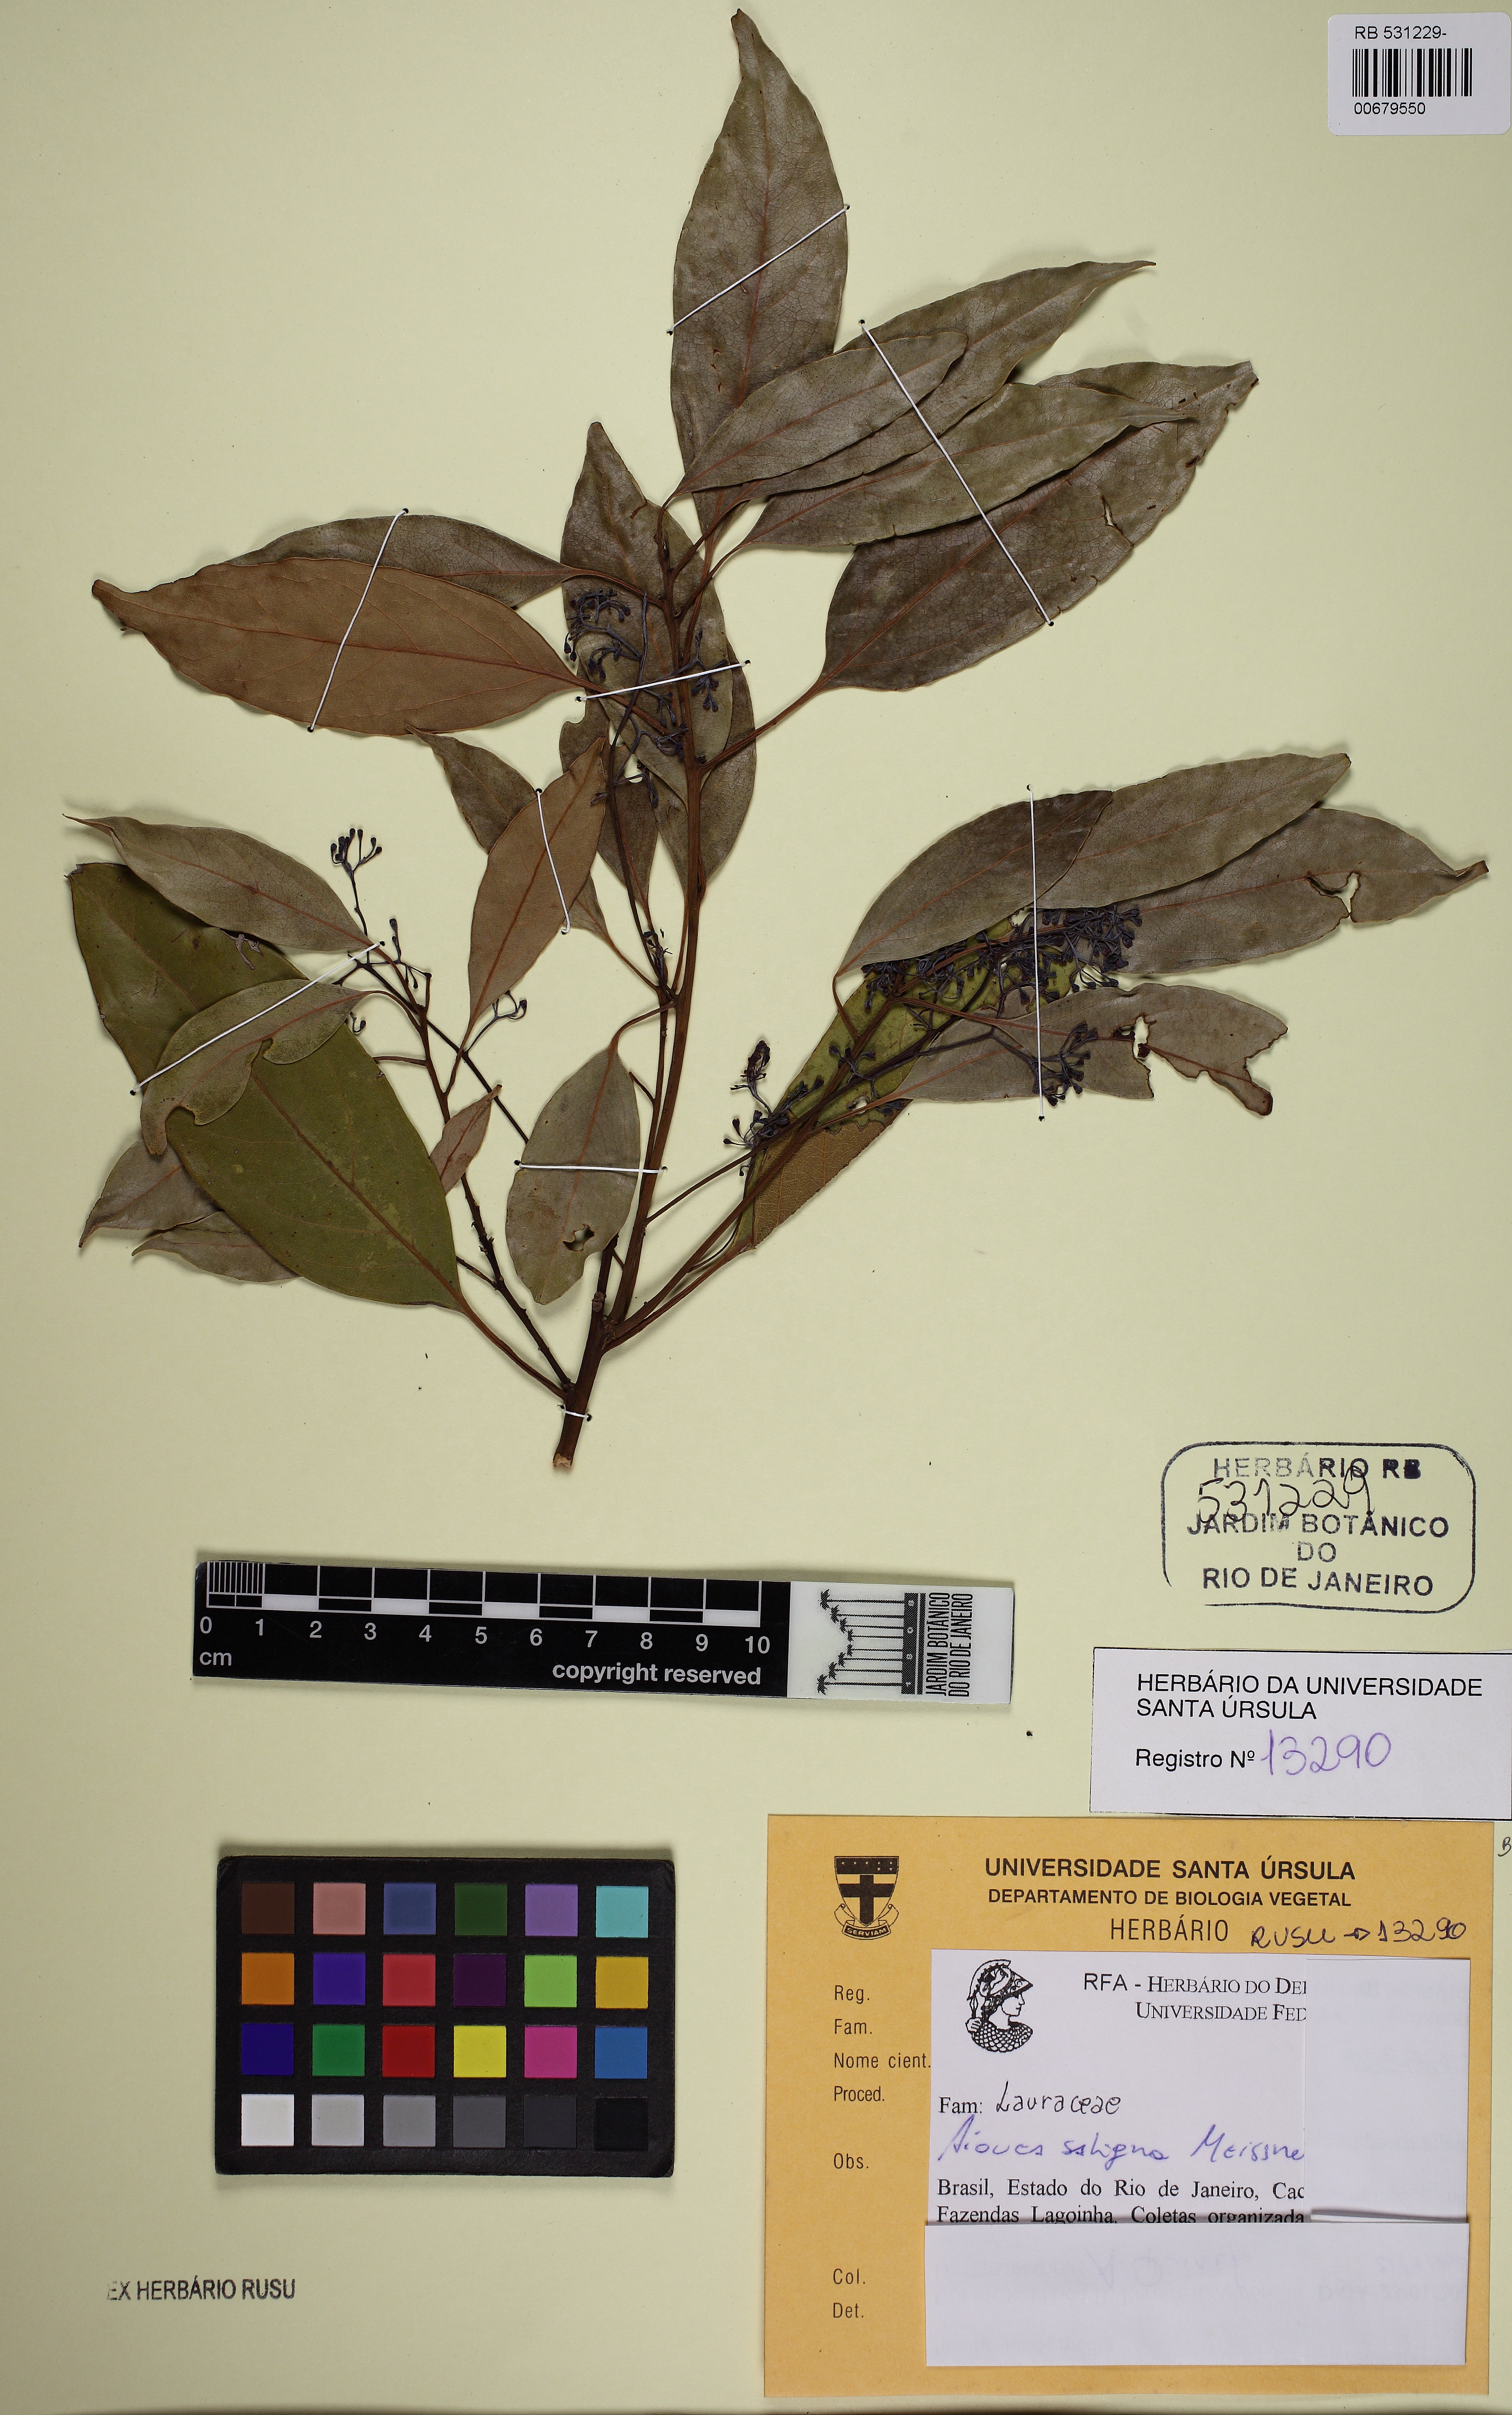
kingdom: Plantae
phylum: Tracheophyta
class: Magnoliopsida
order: Laurales
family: Lauraceae
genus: Aiouea
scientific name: Aiouea saligna
